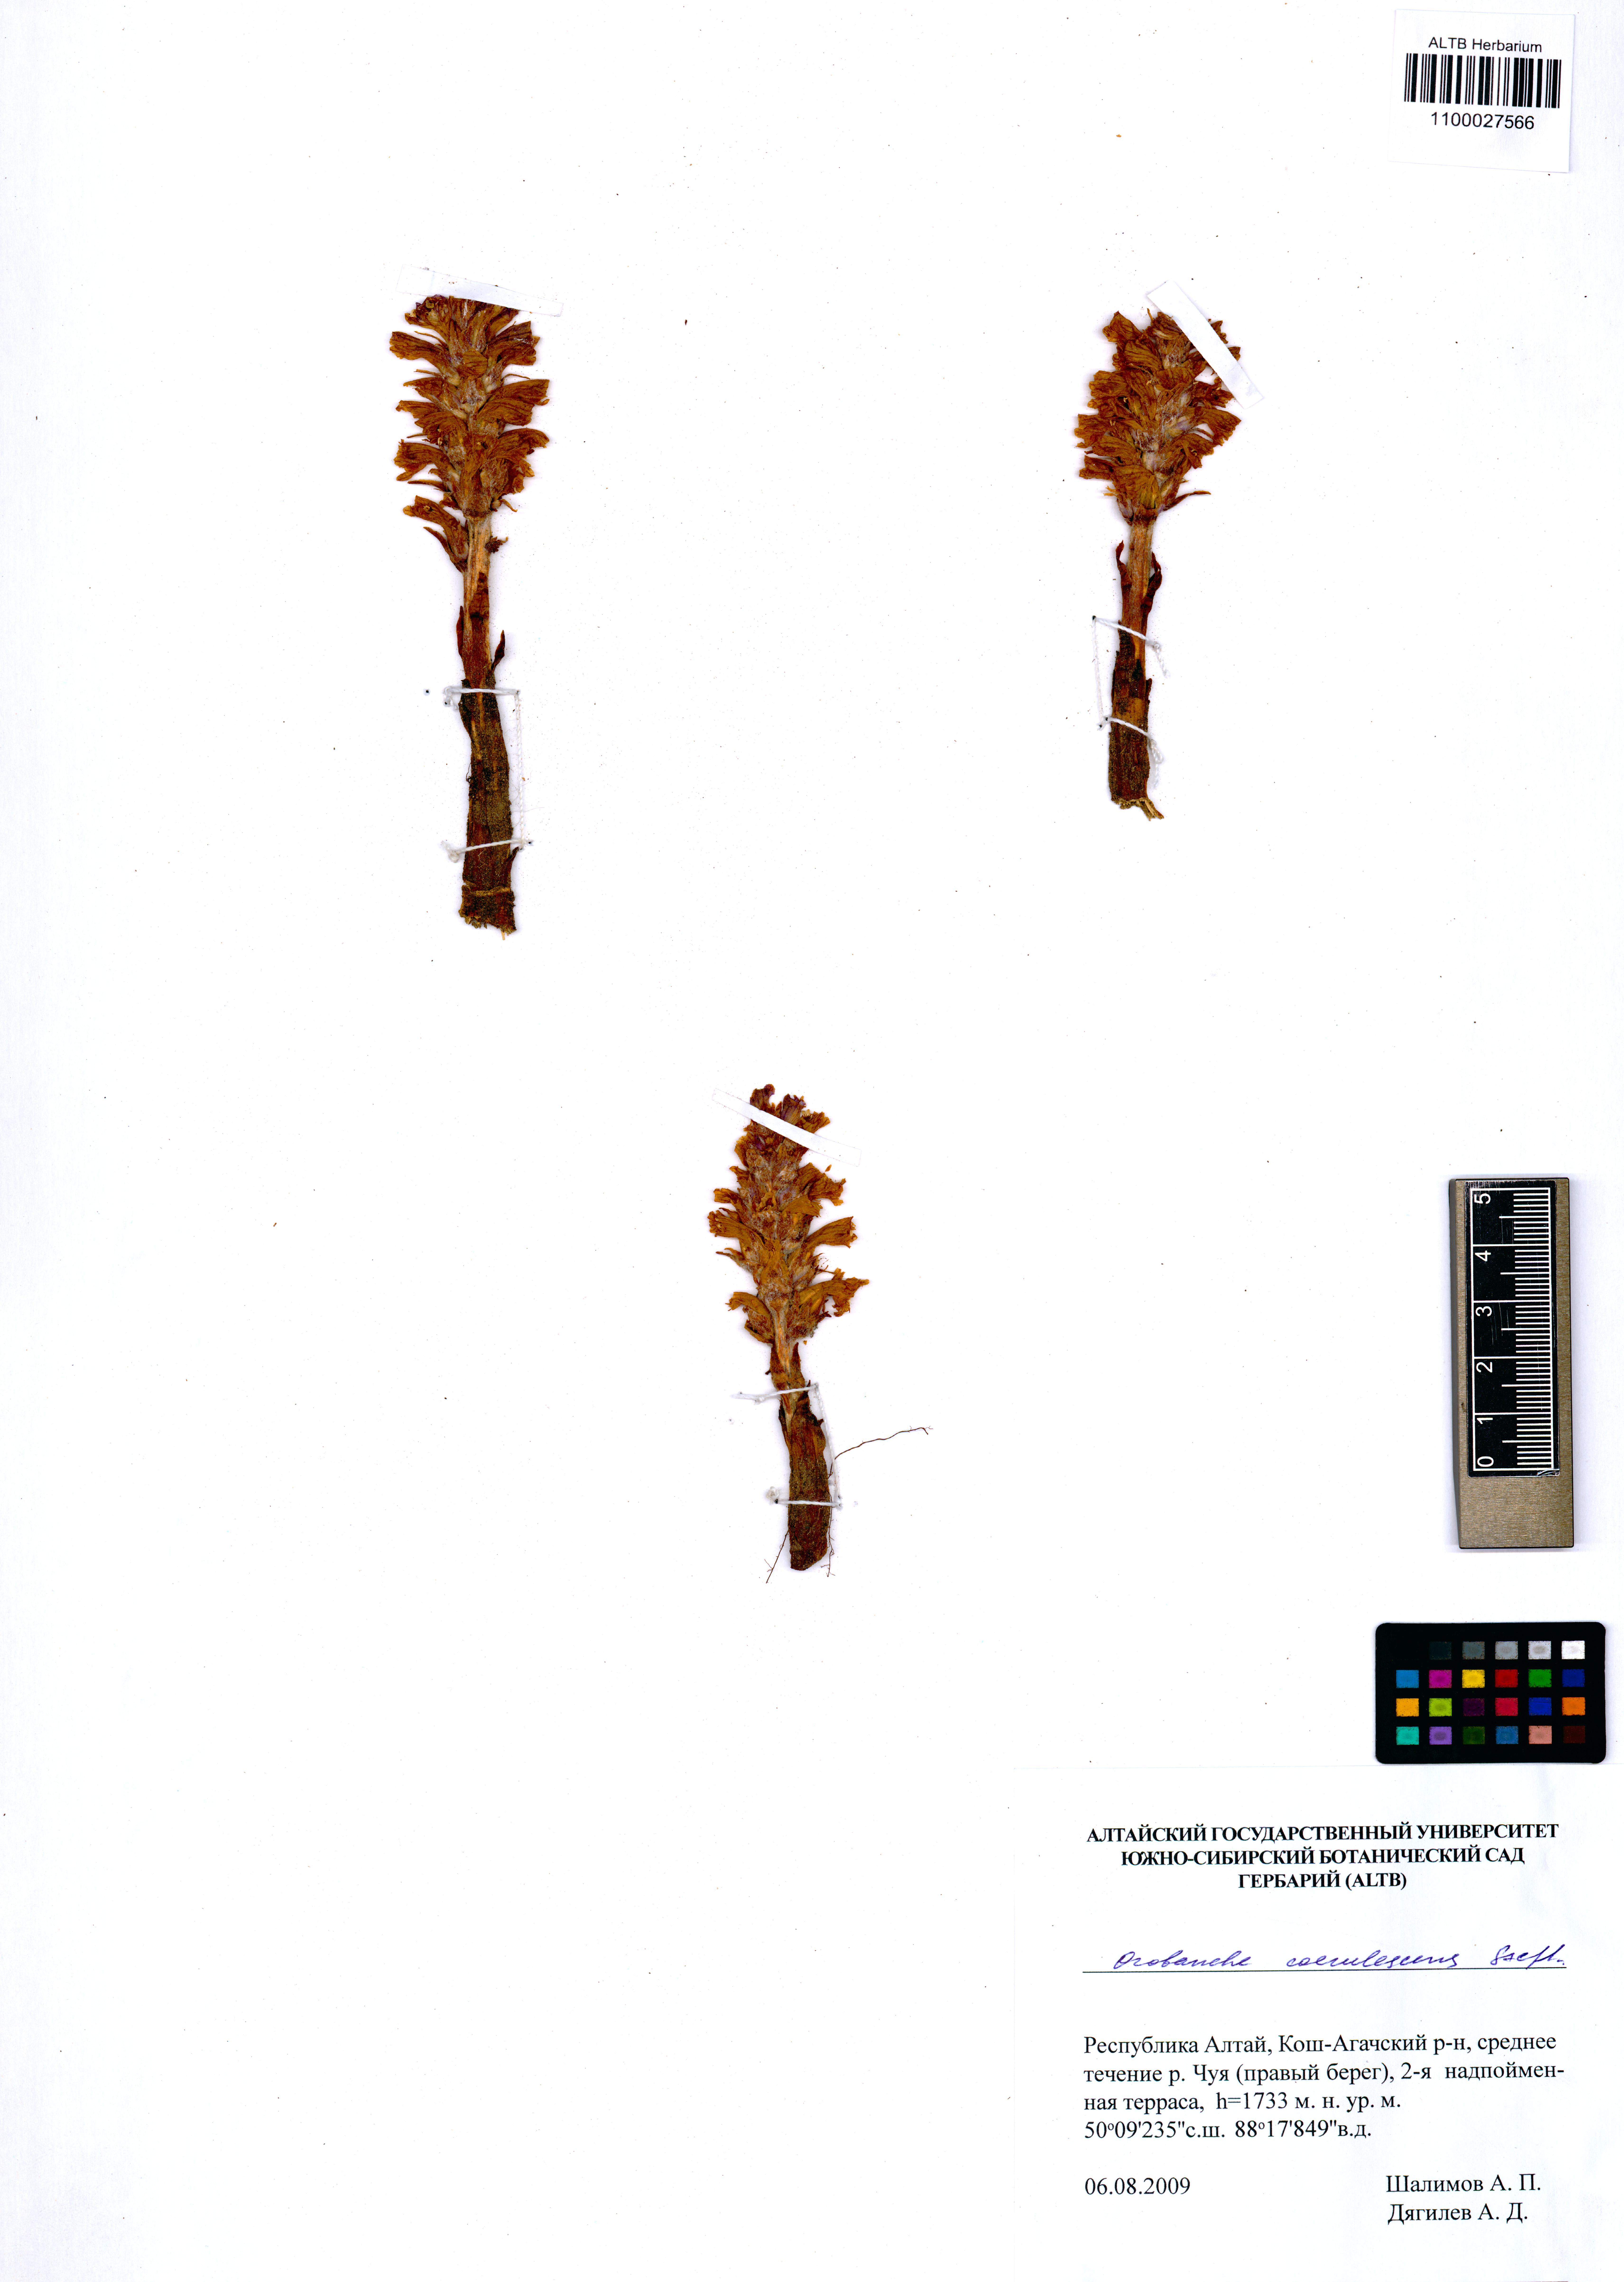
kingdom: Plantae
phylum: Tracheophyta
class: Magnoliopsida
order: Lamiales
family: Orobanchaceae
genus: Orobanche
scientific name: Orobanche coerulescens
